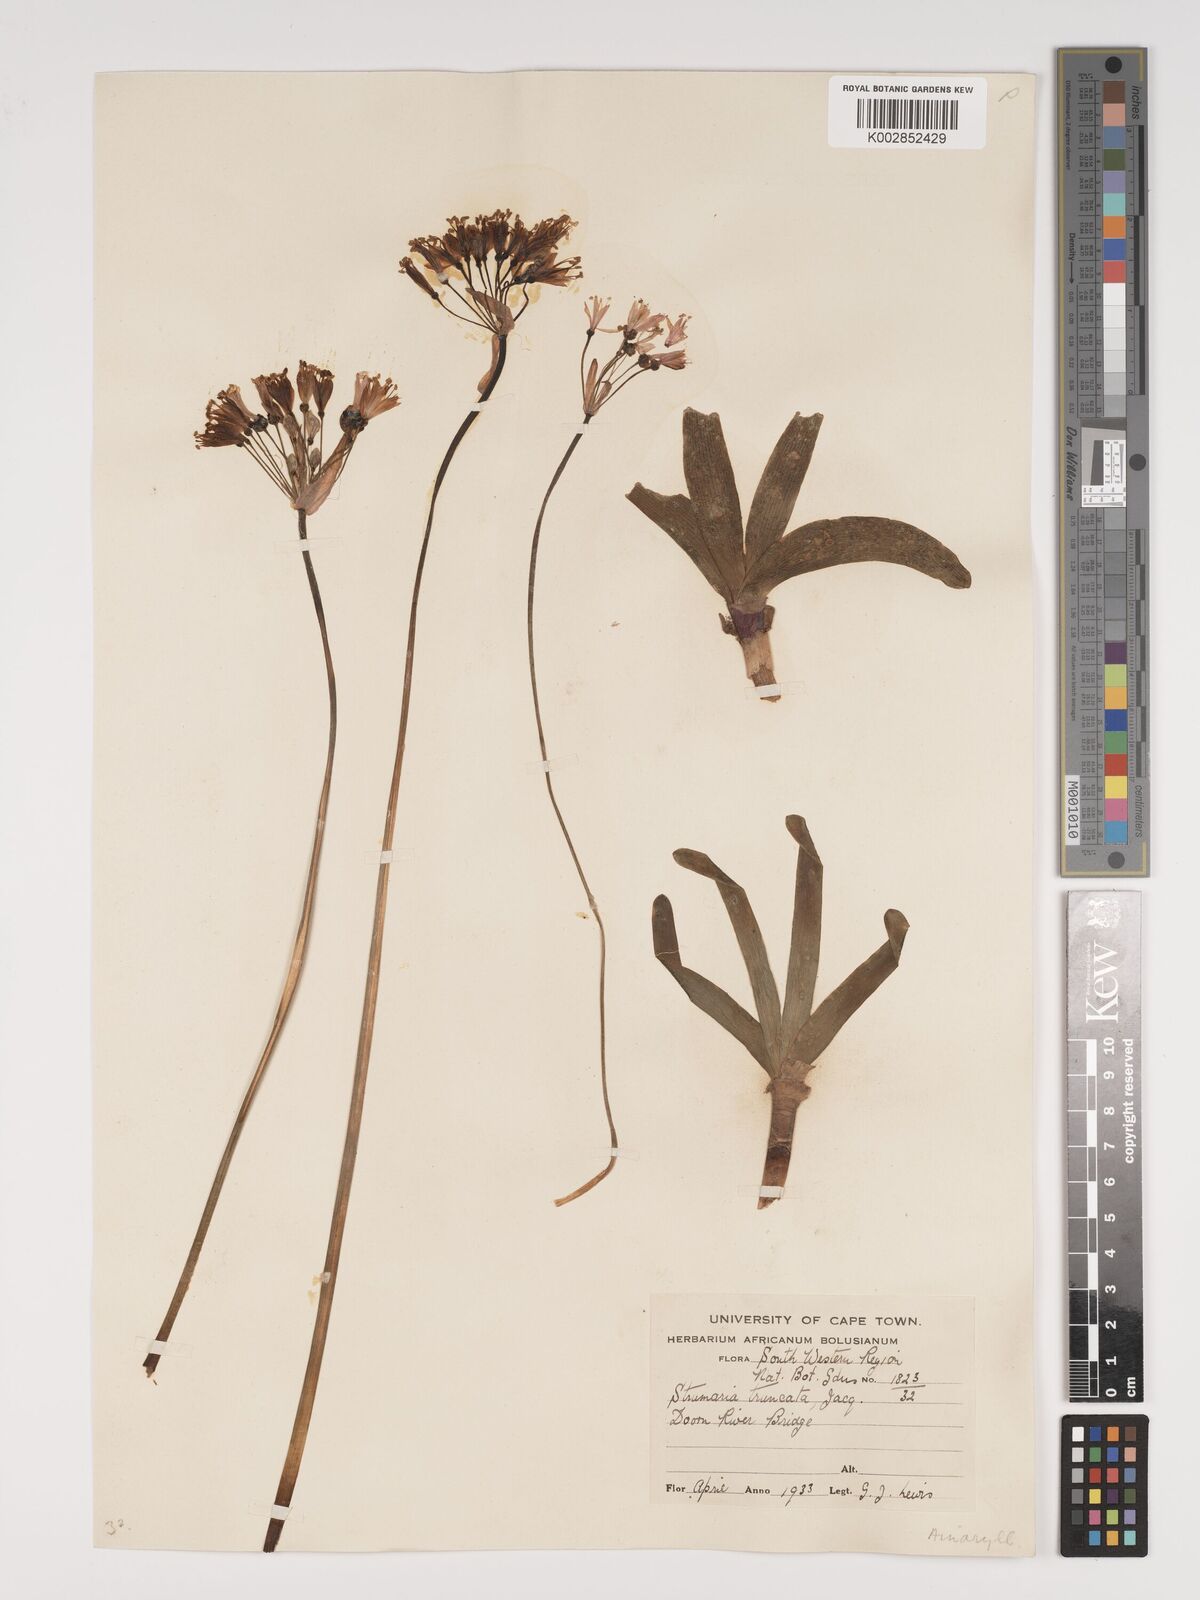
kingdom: Plantae
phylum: Tracheophyta
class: Liliopsida
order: Asparagales
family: Amaryllidaceae
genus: Strumaria
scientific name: Strumaria truncata
